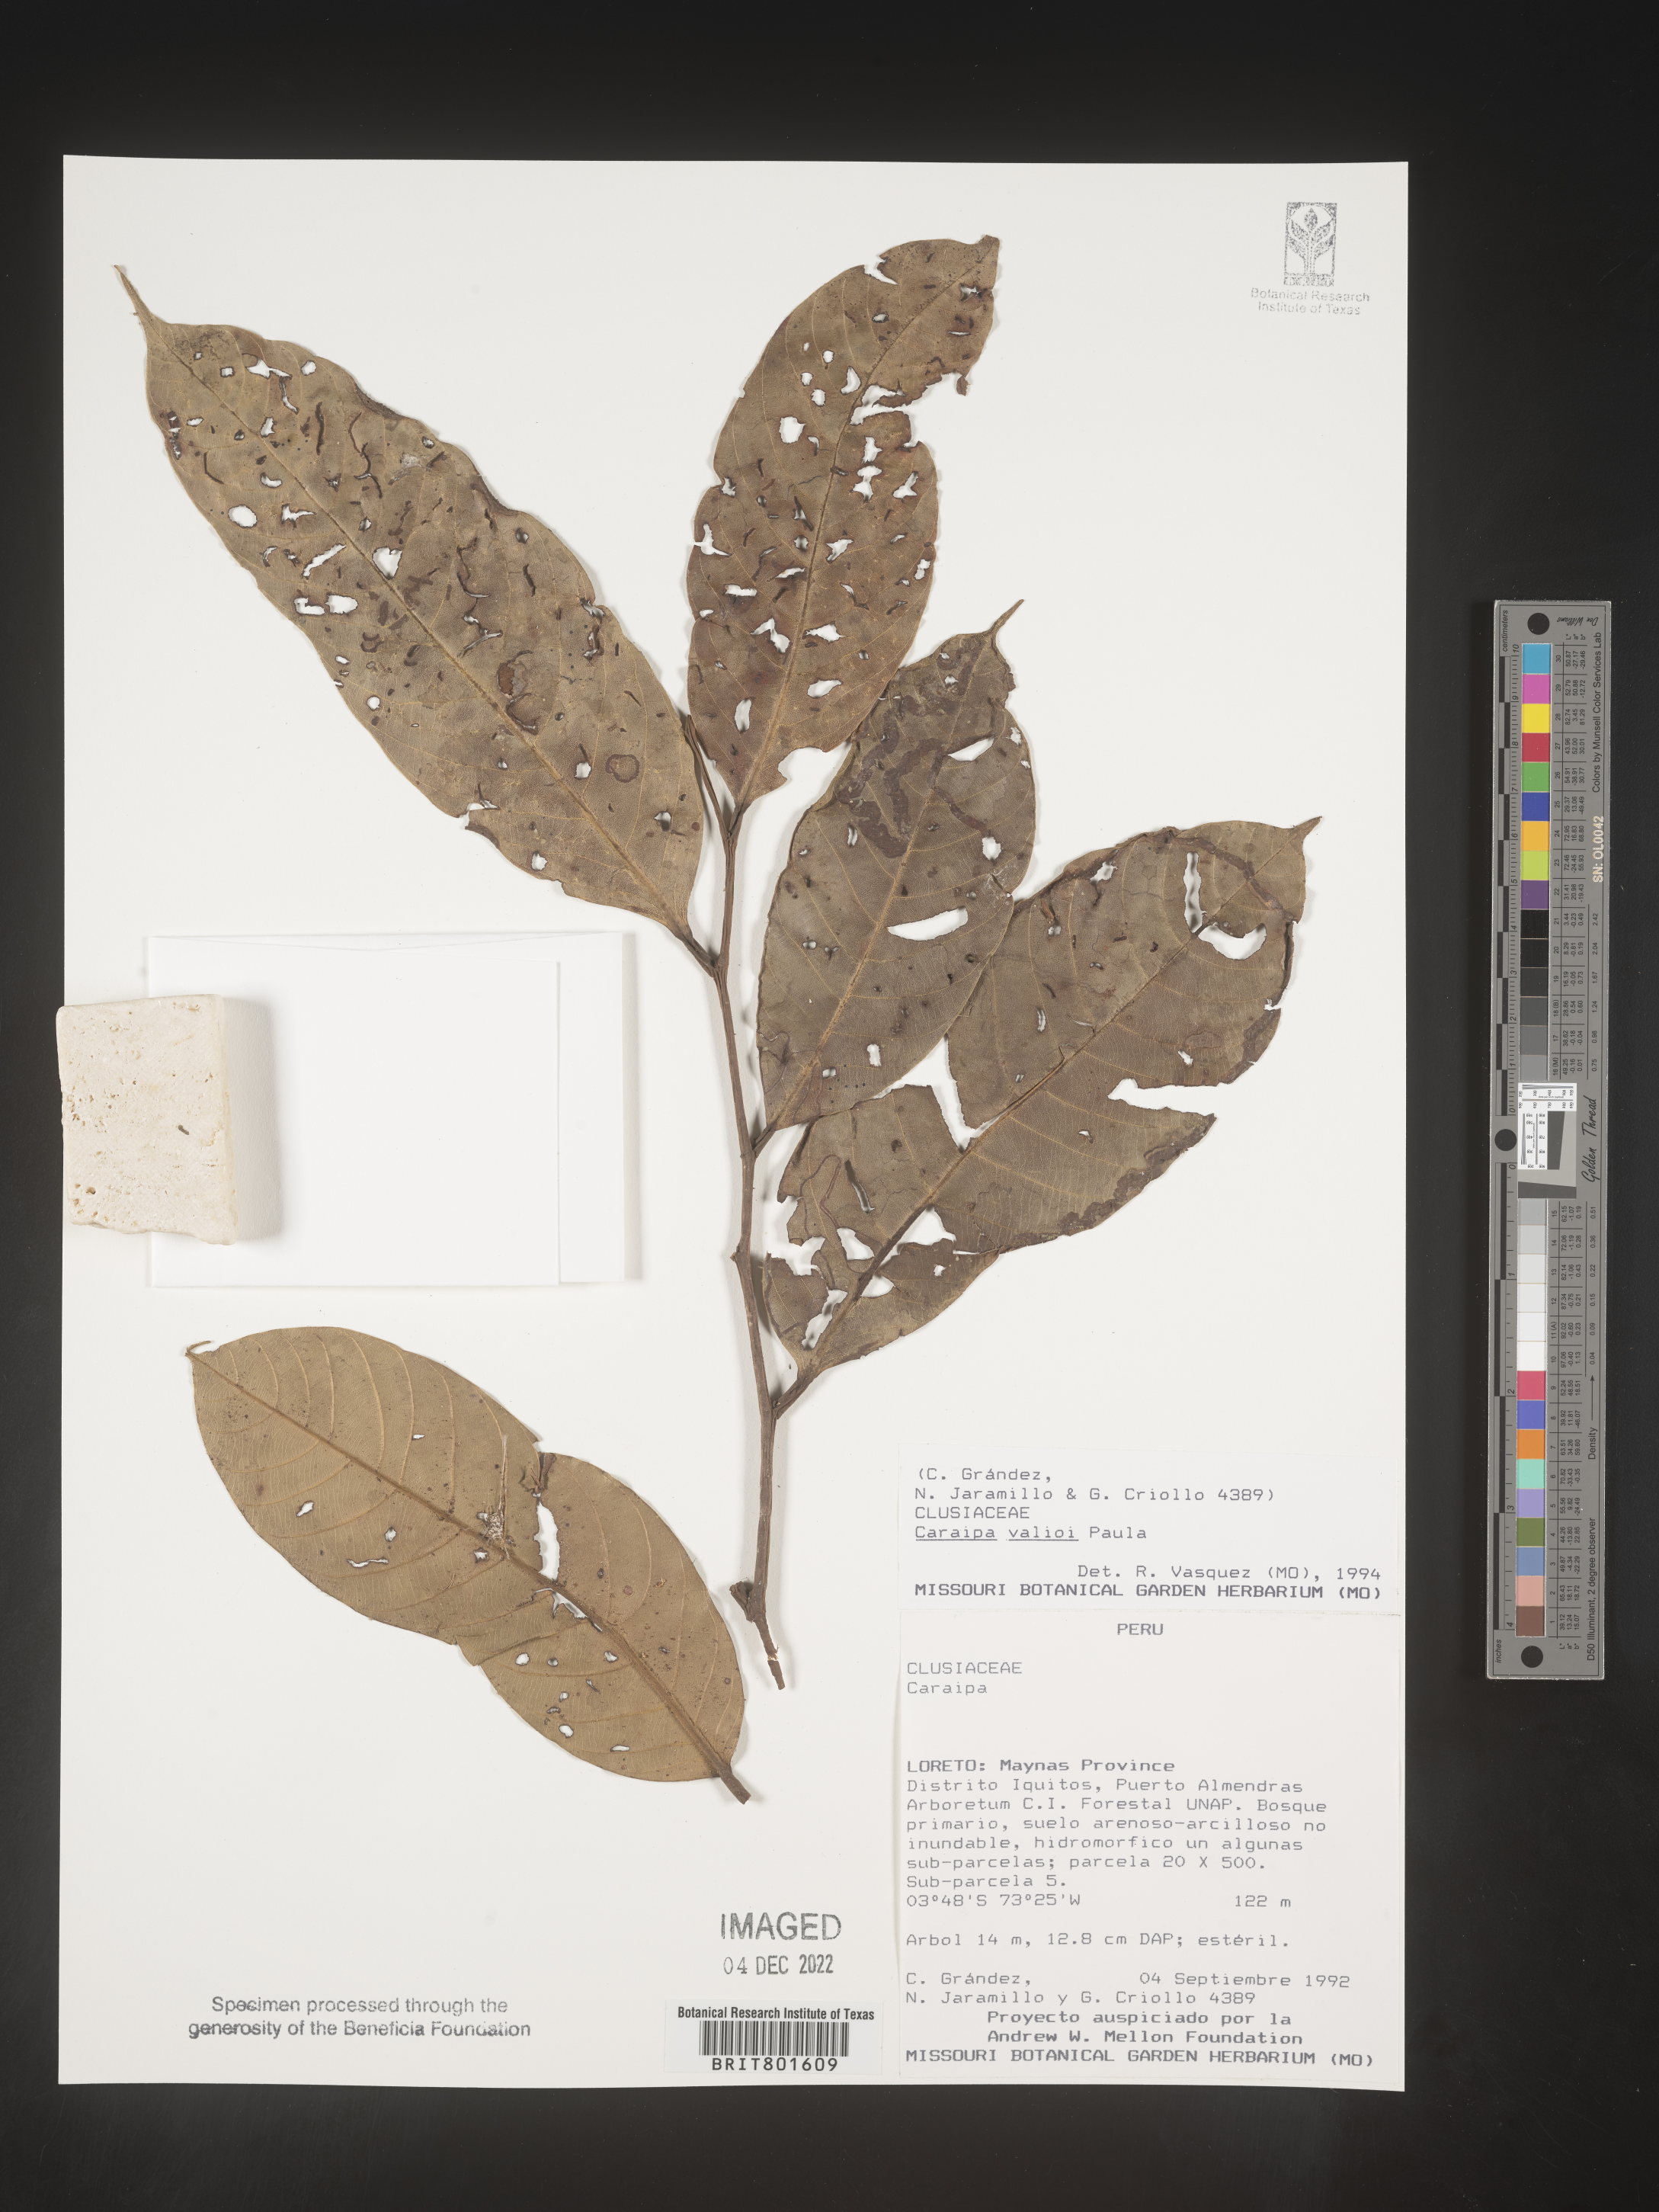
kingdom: Plantae
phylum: Tracheophyta
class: Magnoliopsida
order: Malpighiales
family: Calophyllaceae
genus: Caraipa
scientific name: Caraipa valioi
